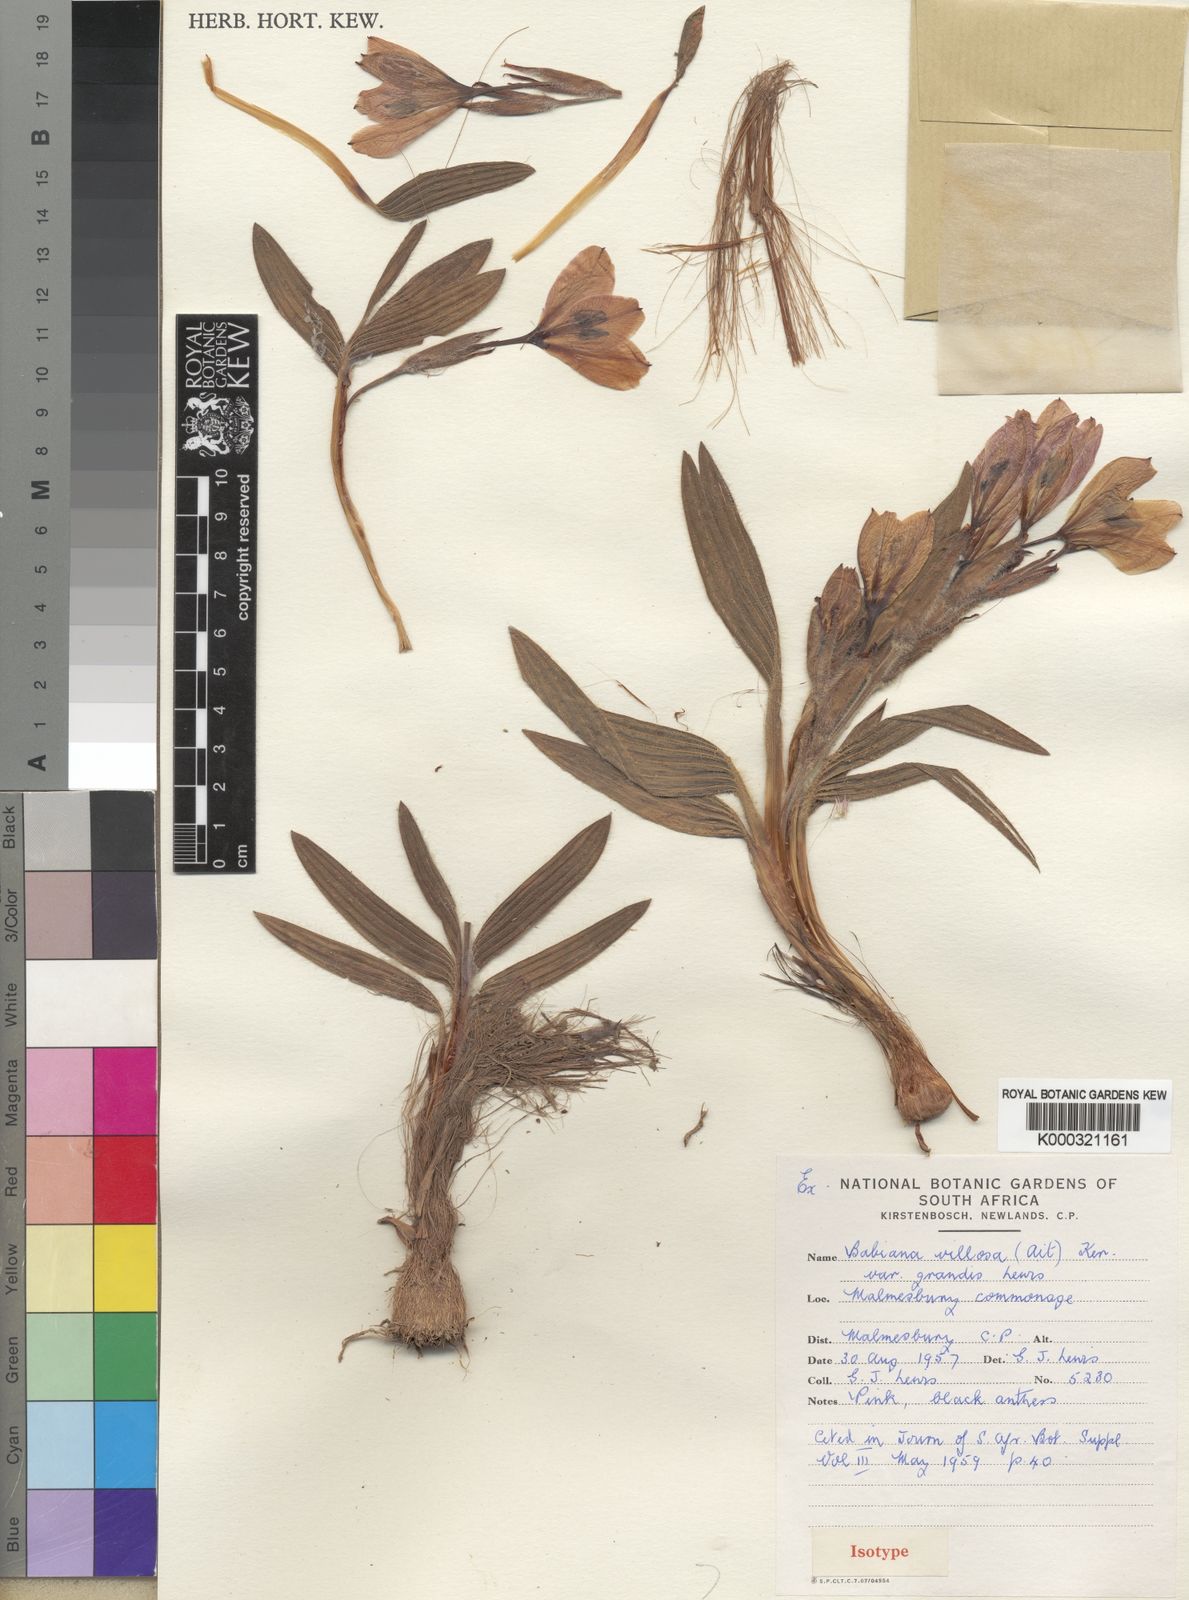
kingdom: Plantae
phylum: Tracheophyta
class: Liliopsida
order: Asparagales
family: Iridaceae
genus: Babiana
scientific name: Babiana villosa
